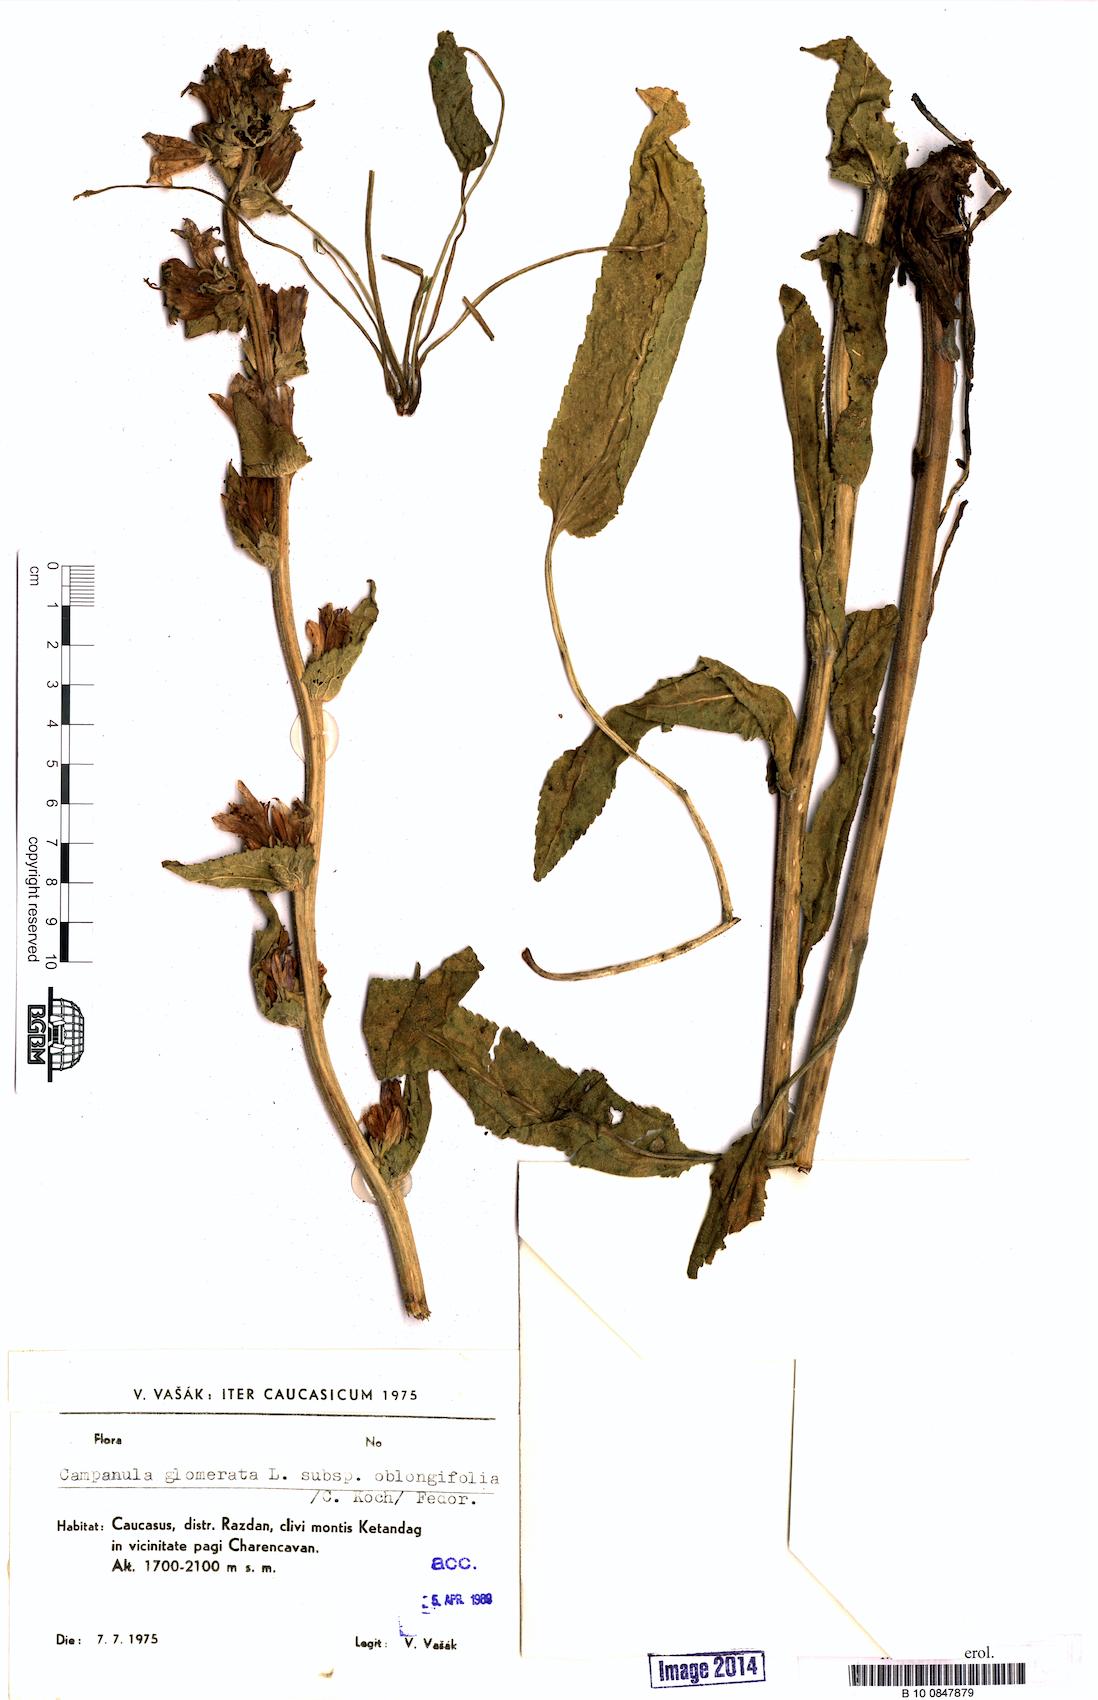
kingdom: Plantae
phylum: Tracheophyta
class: Magnoliopsida
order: Asterales
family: Campanulaceae
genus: Campanula
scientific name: Campanula glomerata
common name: Clustered bellflower
